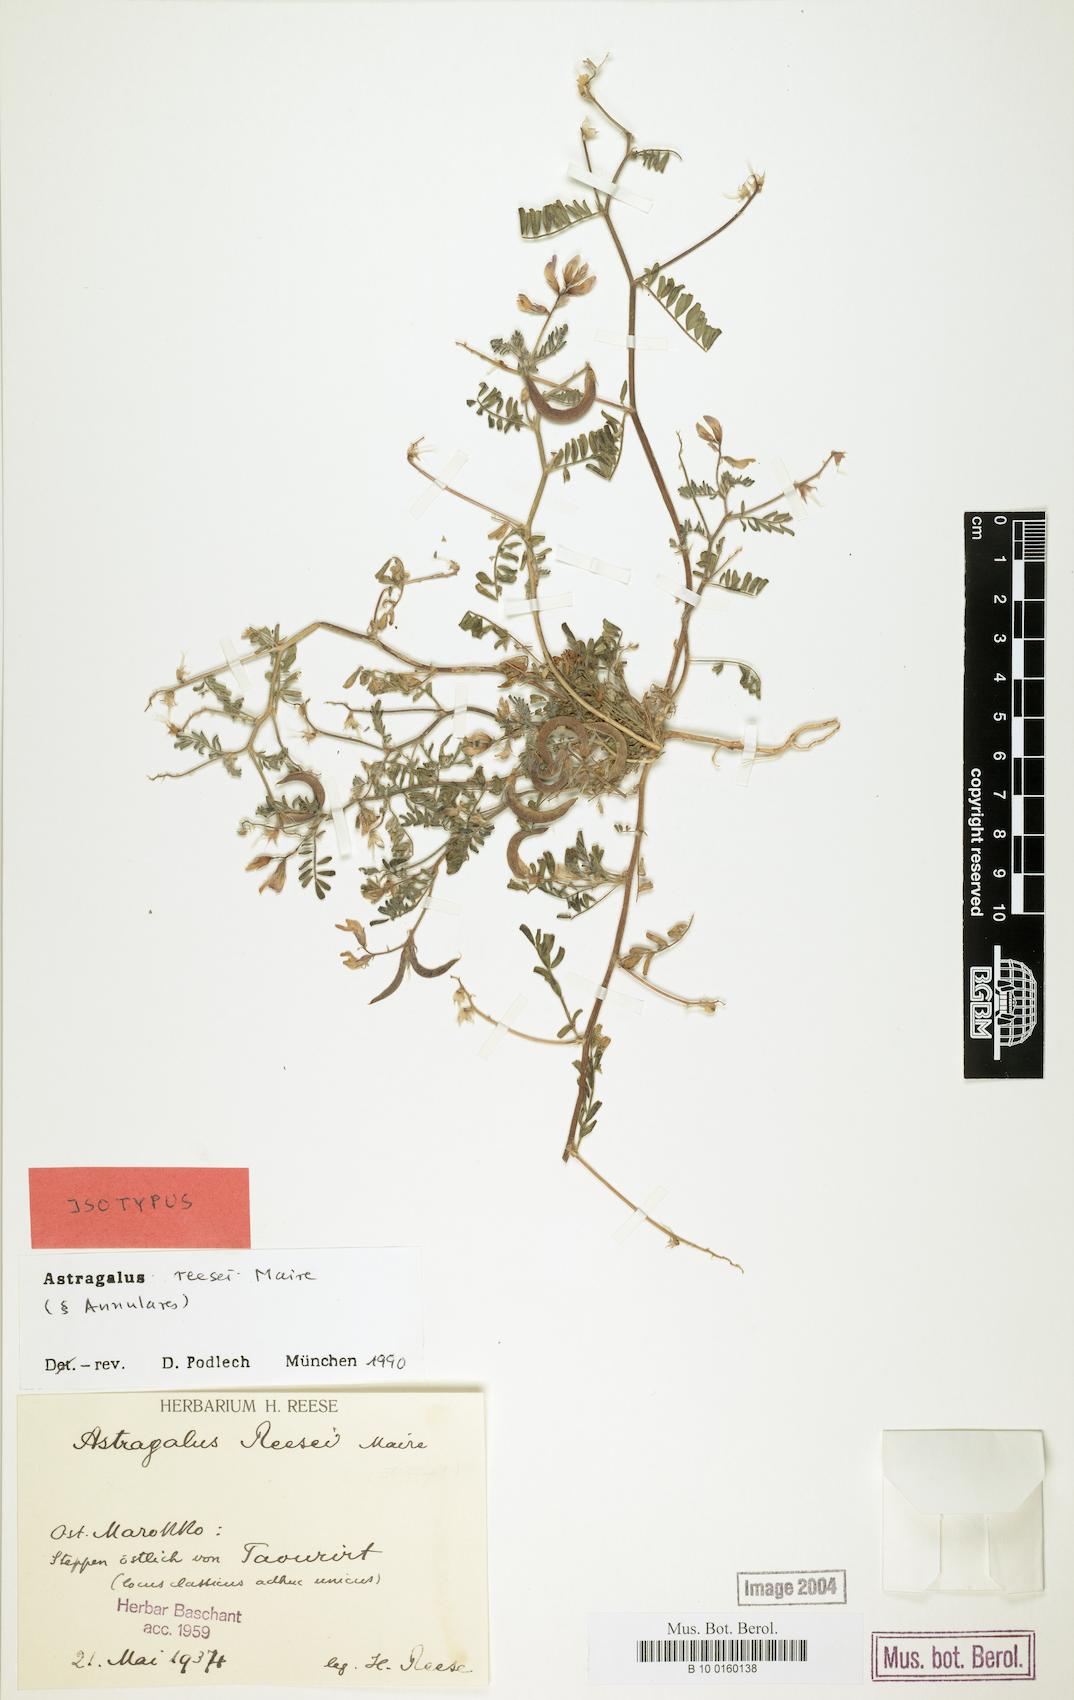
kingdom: Plantae
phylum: Tracheophyta
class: Magnoliopsida
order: Fabales
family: Fabaceae
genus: Astragalus
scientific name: Astragalus reesei
